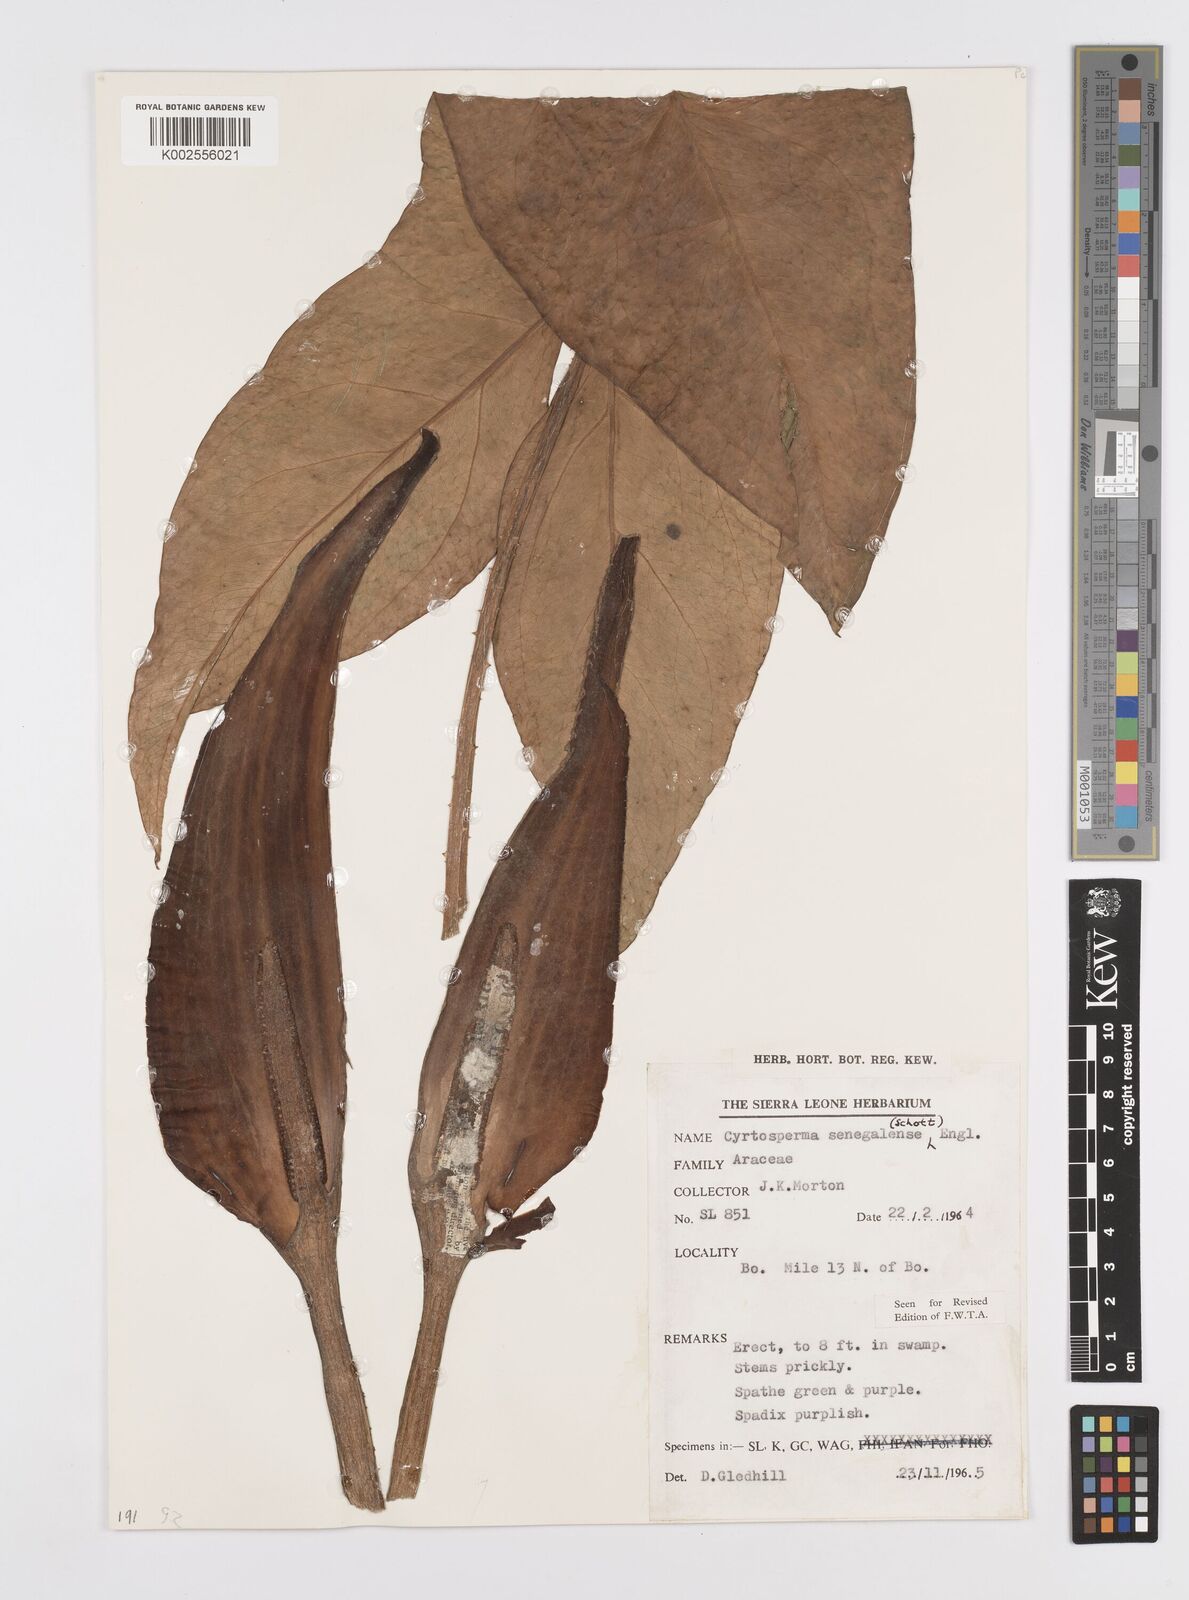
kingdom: Plantae
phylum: Tracheophyta
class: Liliopsida
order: Alismatales
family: Araceae
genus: Lasimorpha
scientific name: Lasimorpha senegalensis
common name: Swamp arum
